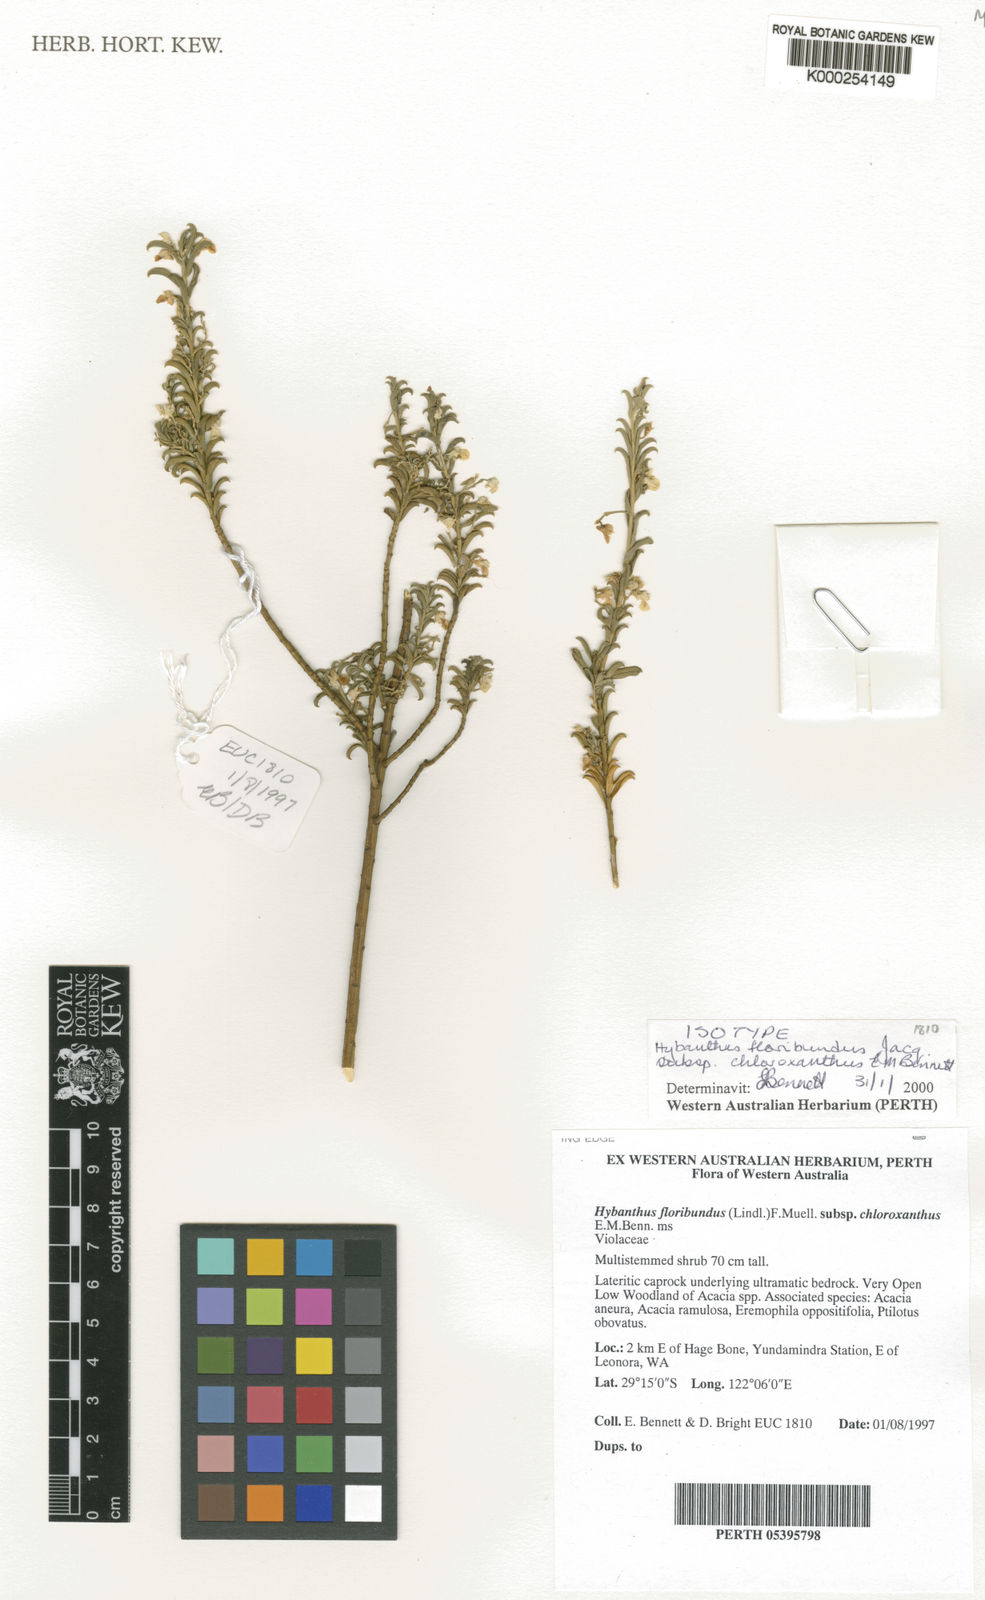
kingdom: Plantae
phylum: Tracheophyta
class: Magnoliopsida
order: Malpighiales
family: Violaceae
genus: Pigea
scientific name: Pigea floribunda
